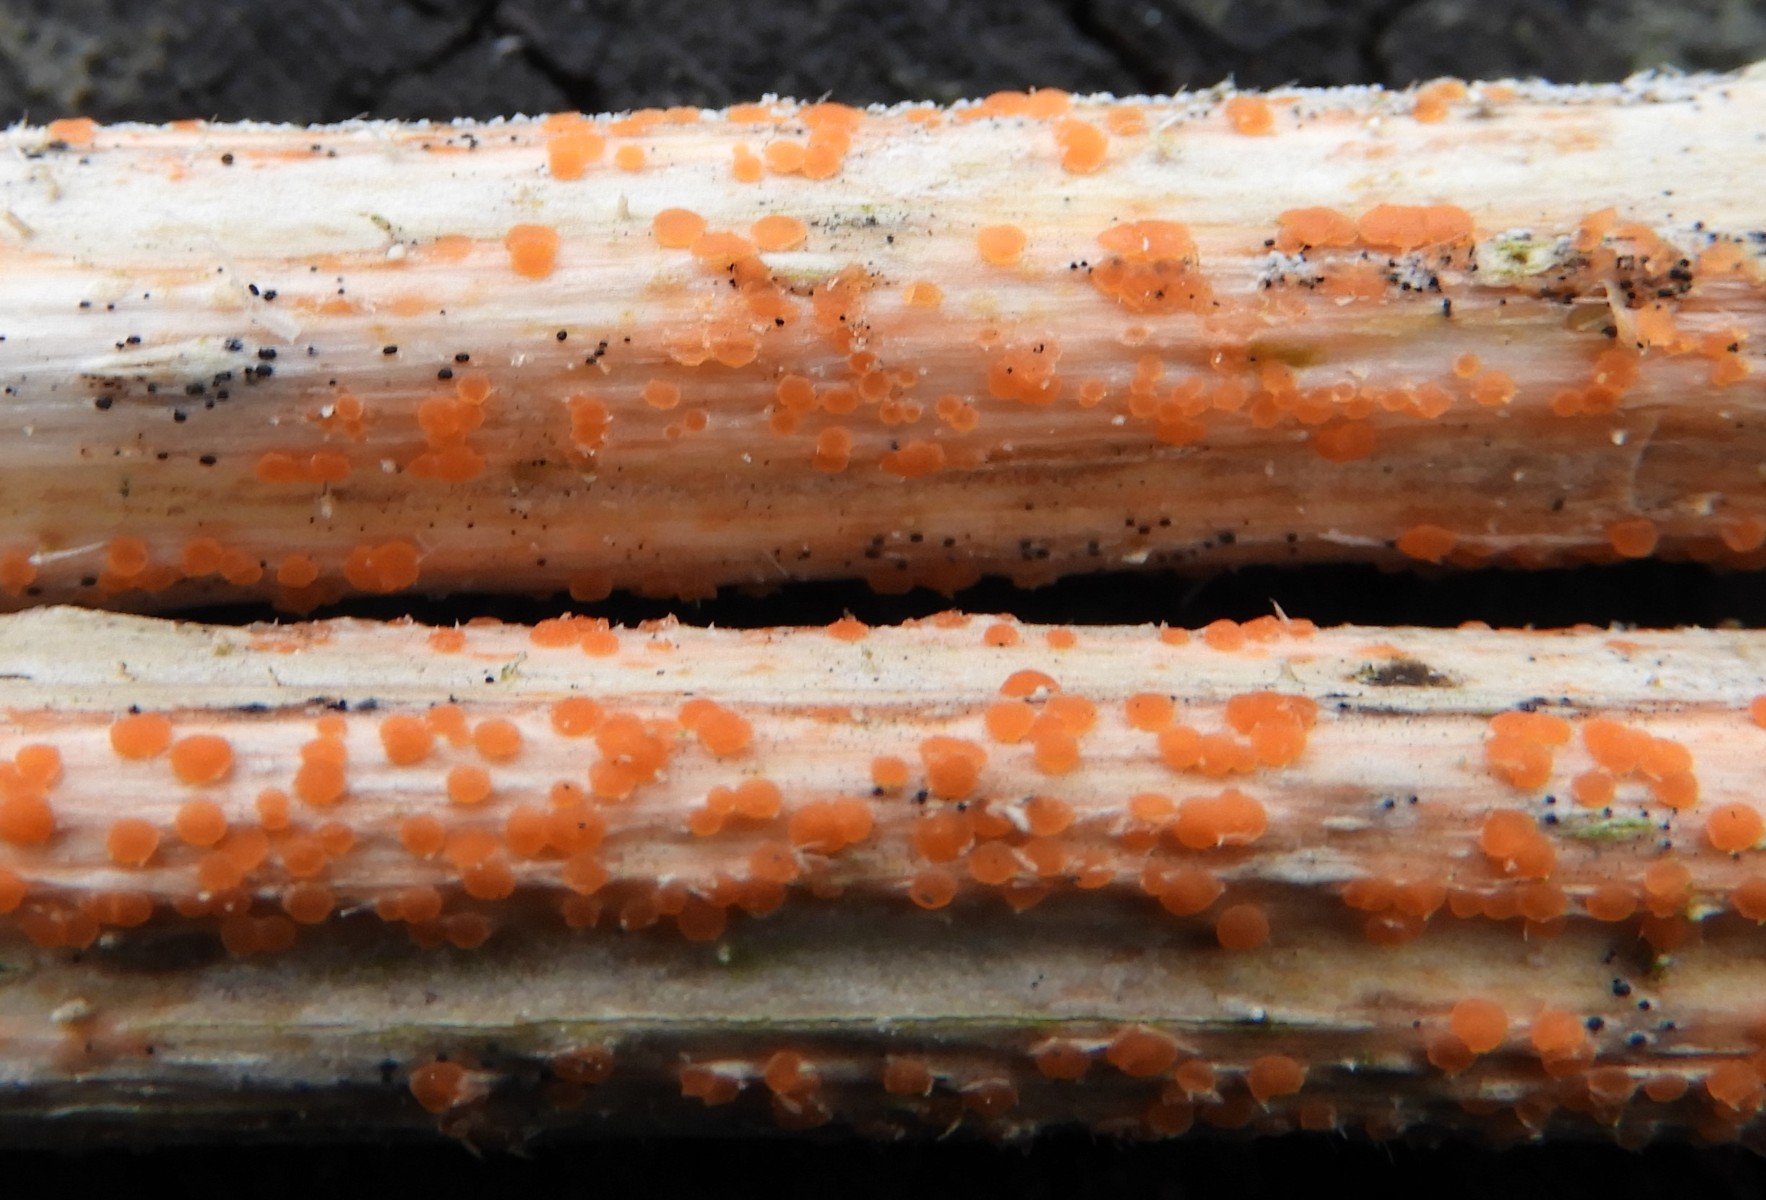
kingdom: Fungi
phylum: Ascomycota
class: Leotiomycetes
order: Helotiales
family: Calloriaceae
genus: Calloria
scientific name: Calloria urticae
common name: nælde-orangeskive
